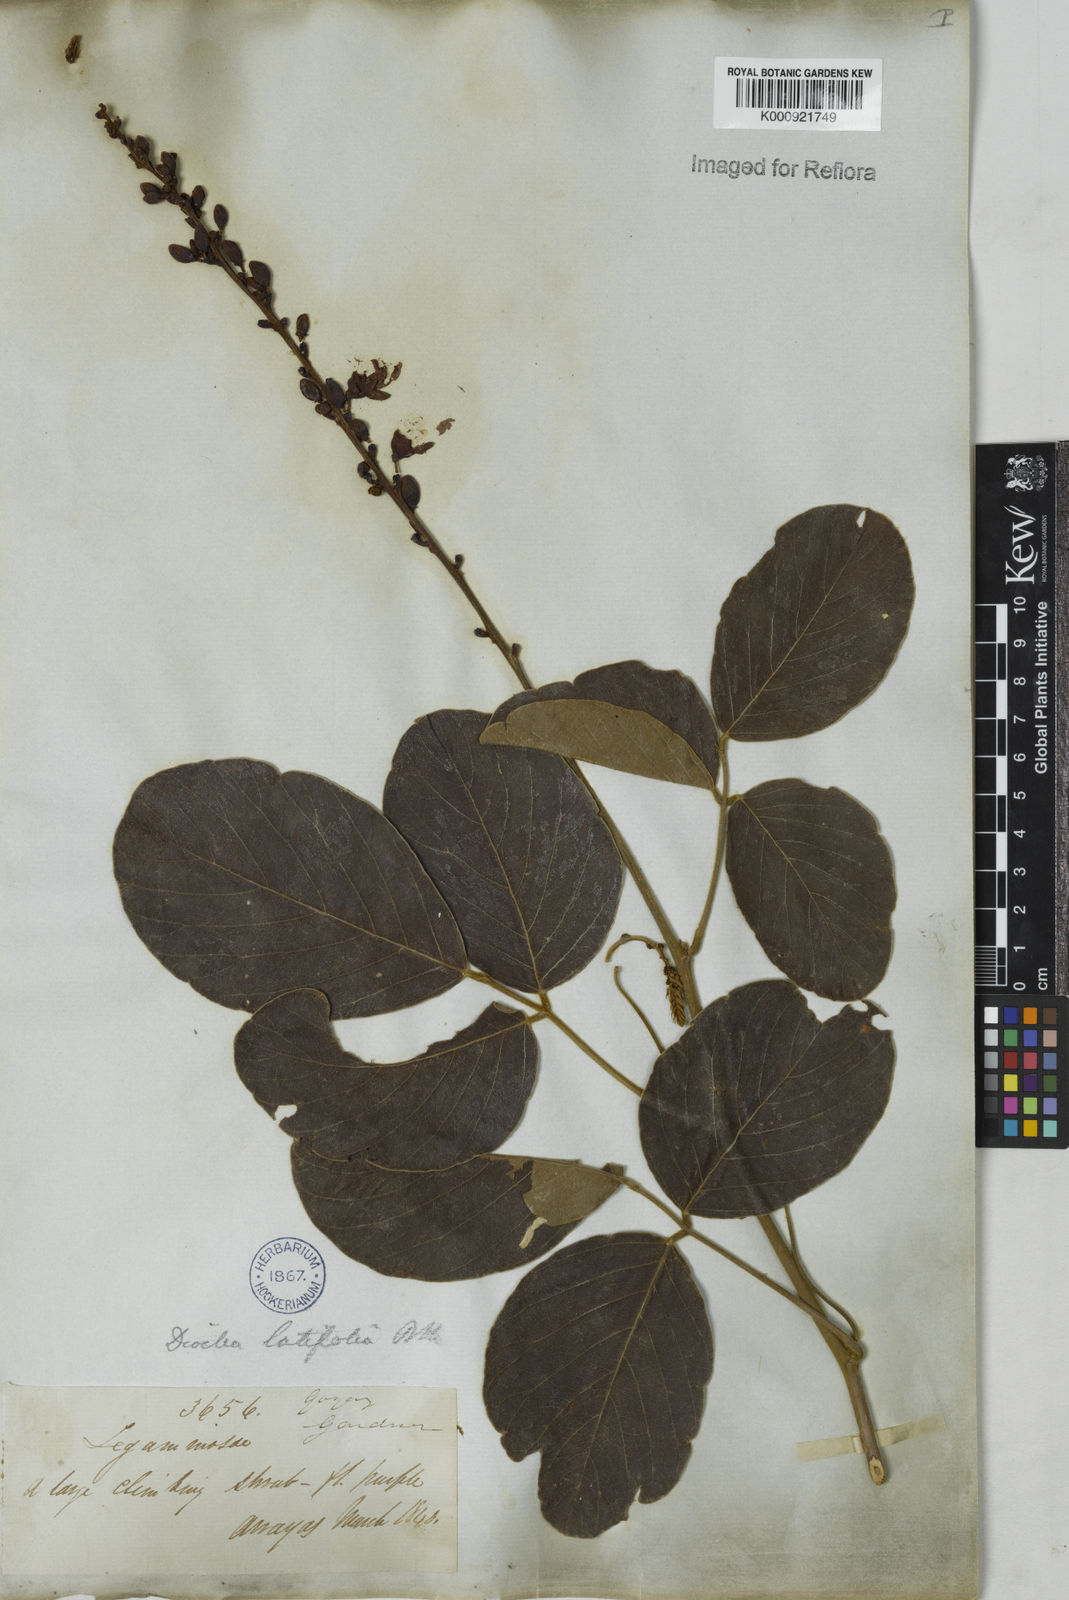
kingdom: Plantae
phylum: Tracheophyta
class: Magnoliopsida
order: Fabales
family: Fabaceae
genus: Macropsychanthus
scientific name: Macropsychanthus latifolius
